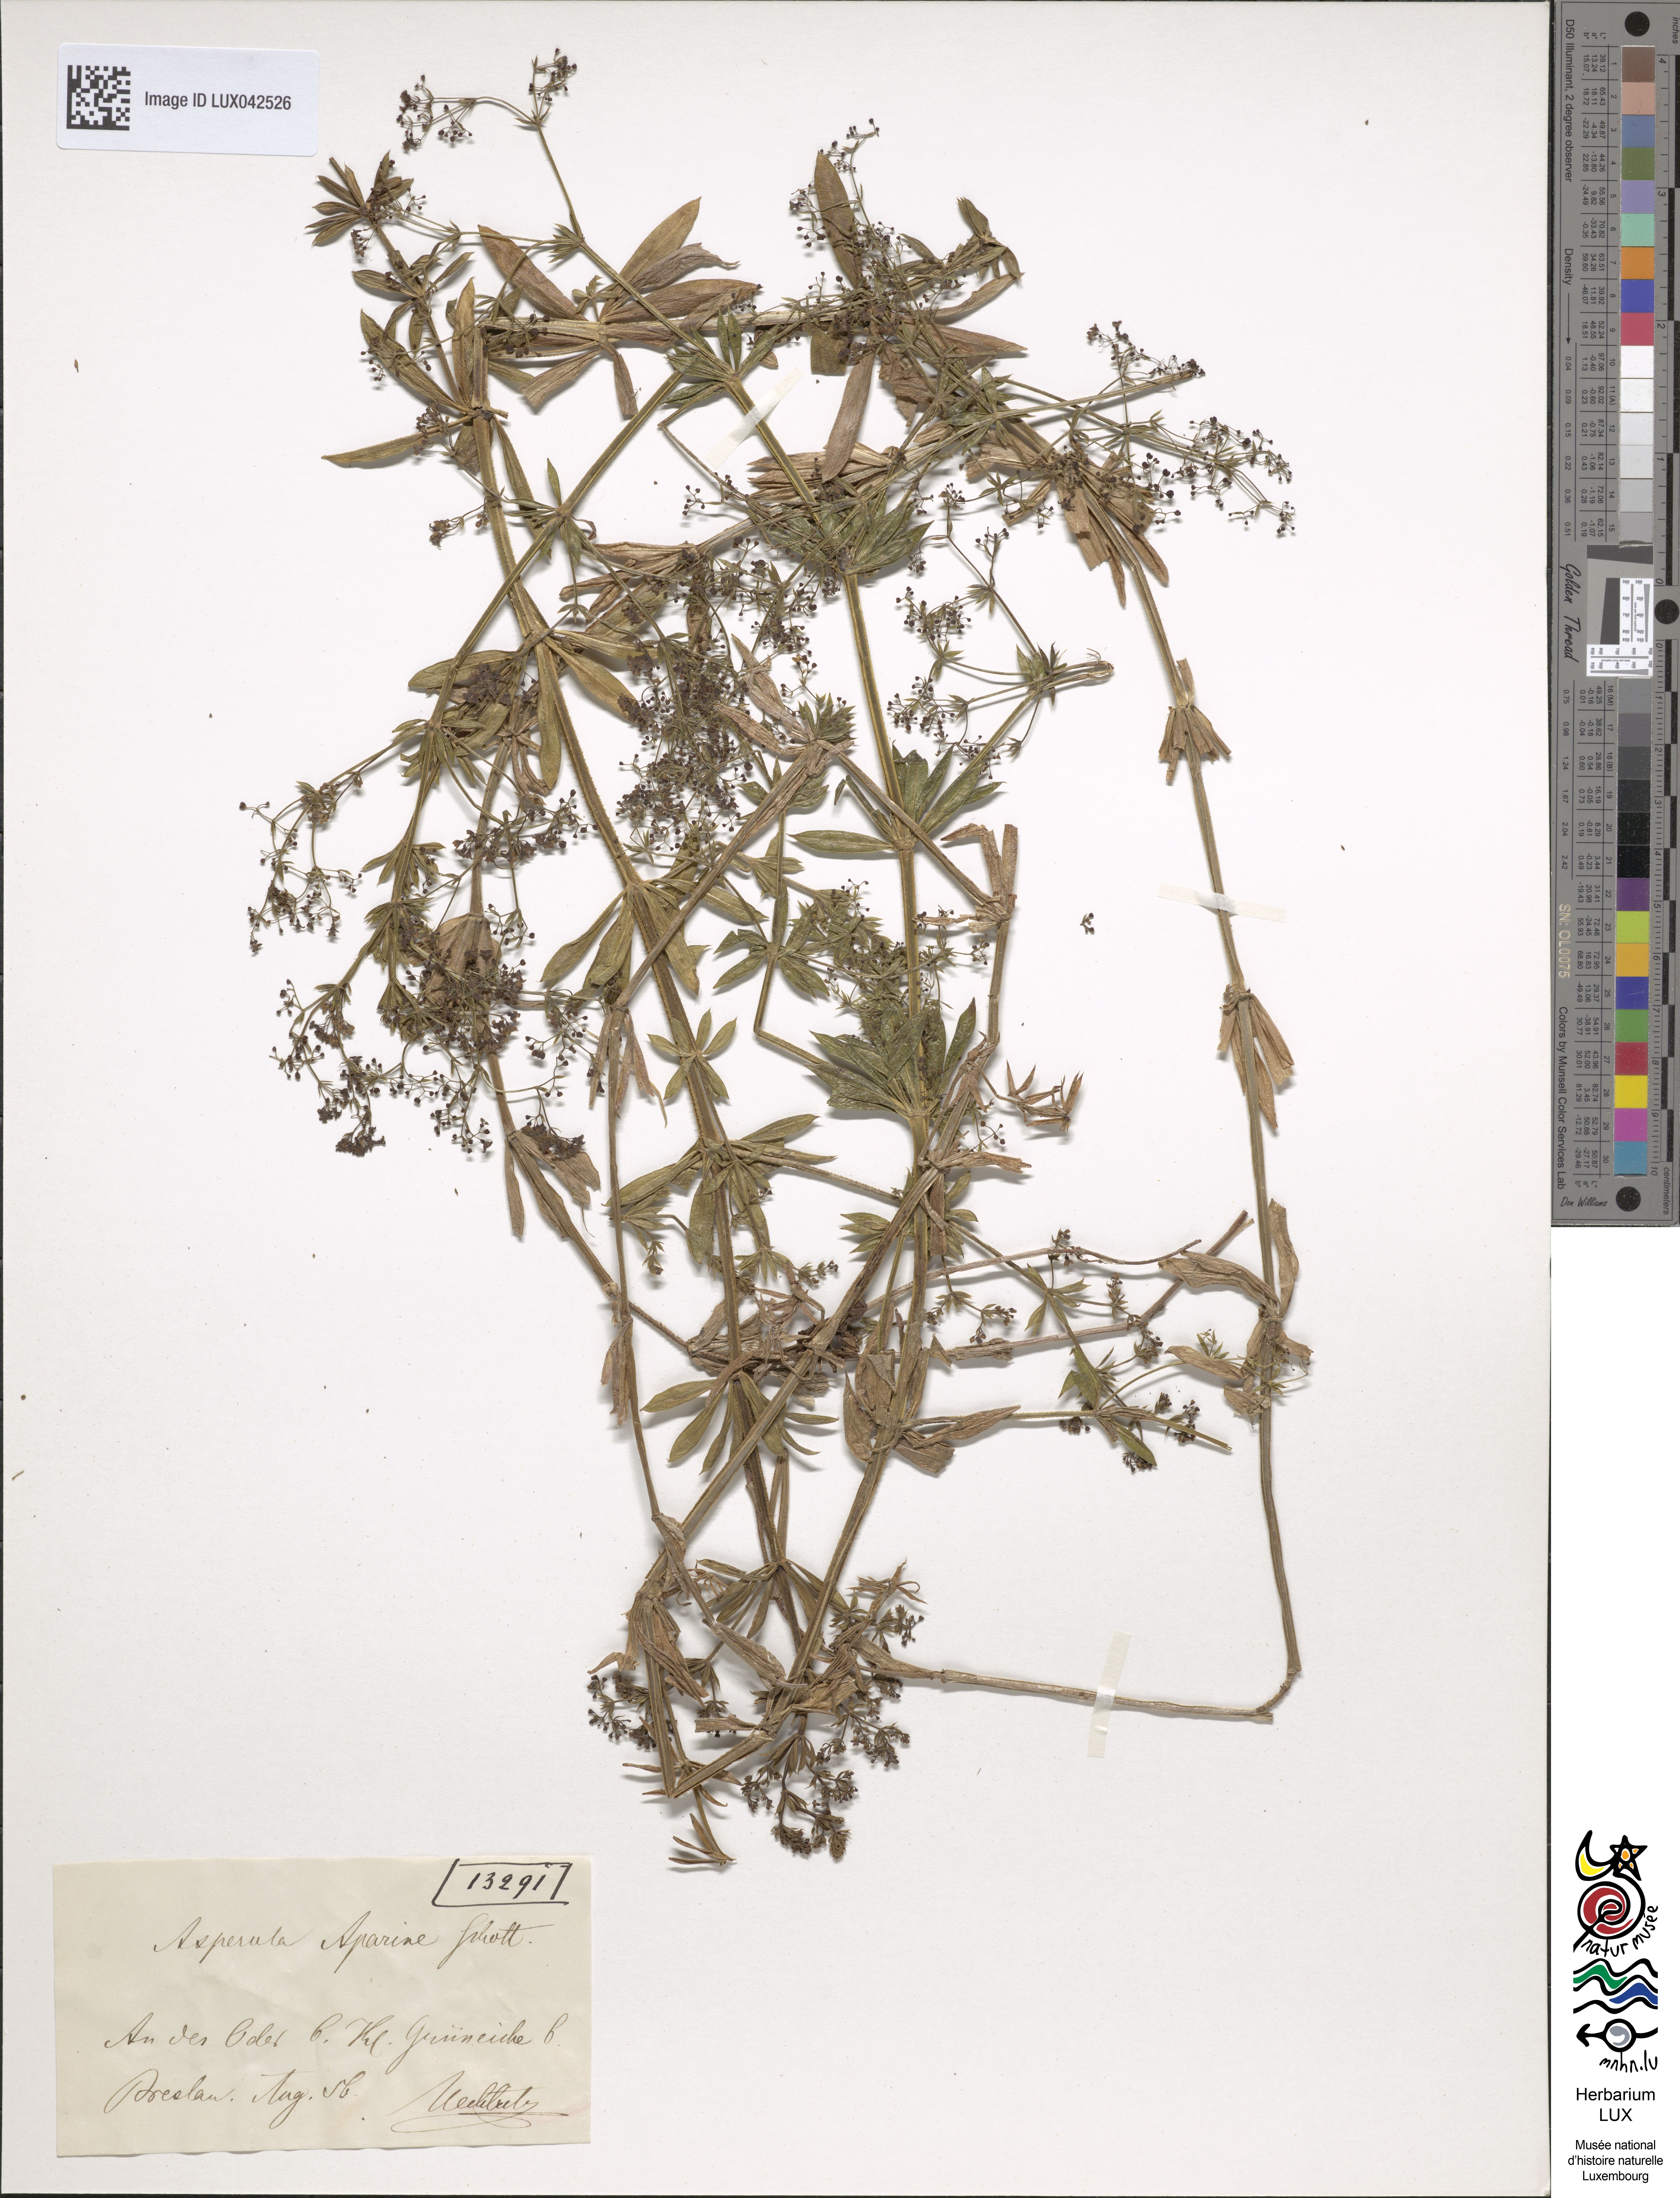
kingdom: Plantae
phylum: Tracheophyta
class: Magnoliopsida
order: Gentianales
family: Rubiaceae
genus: Galium
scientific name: Galium rivale
